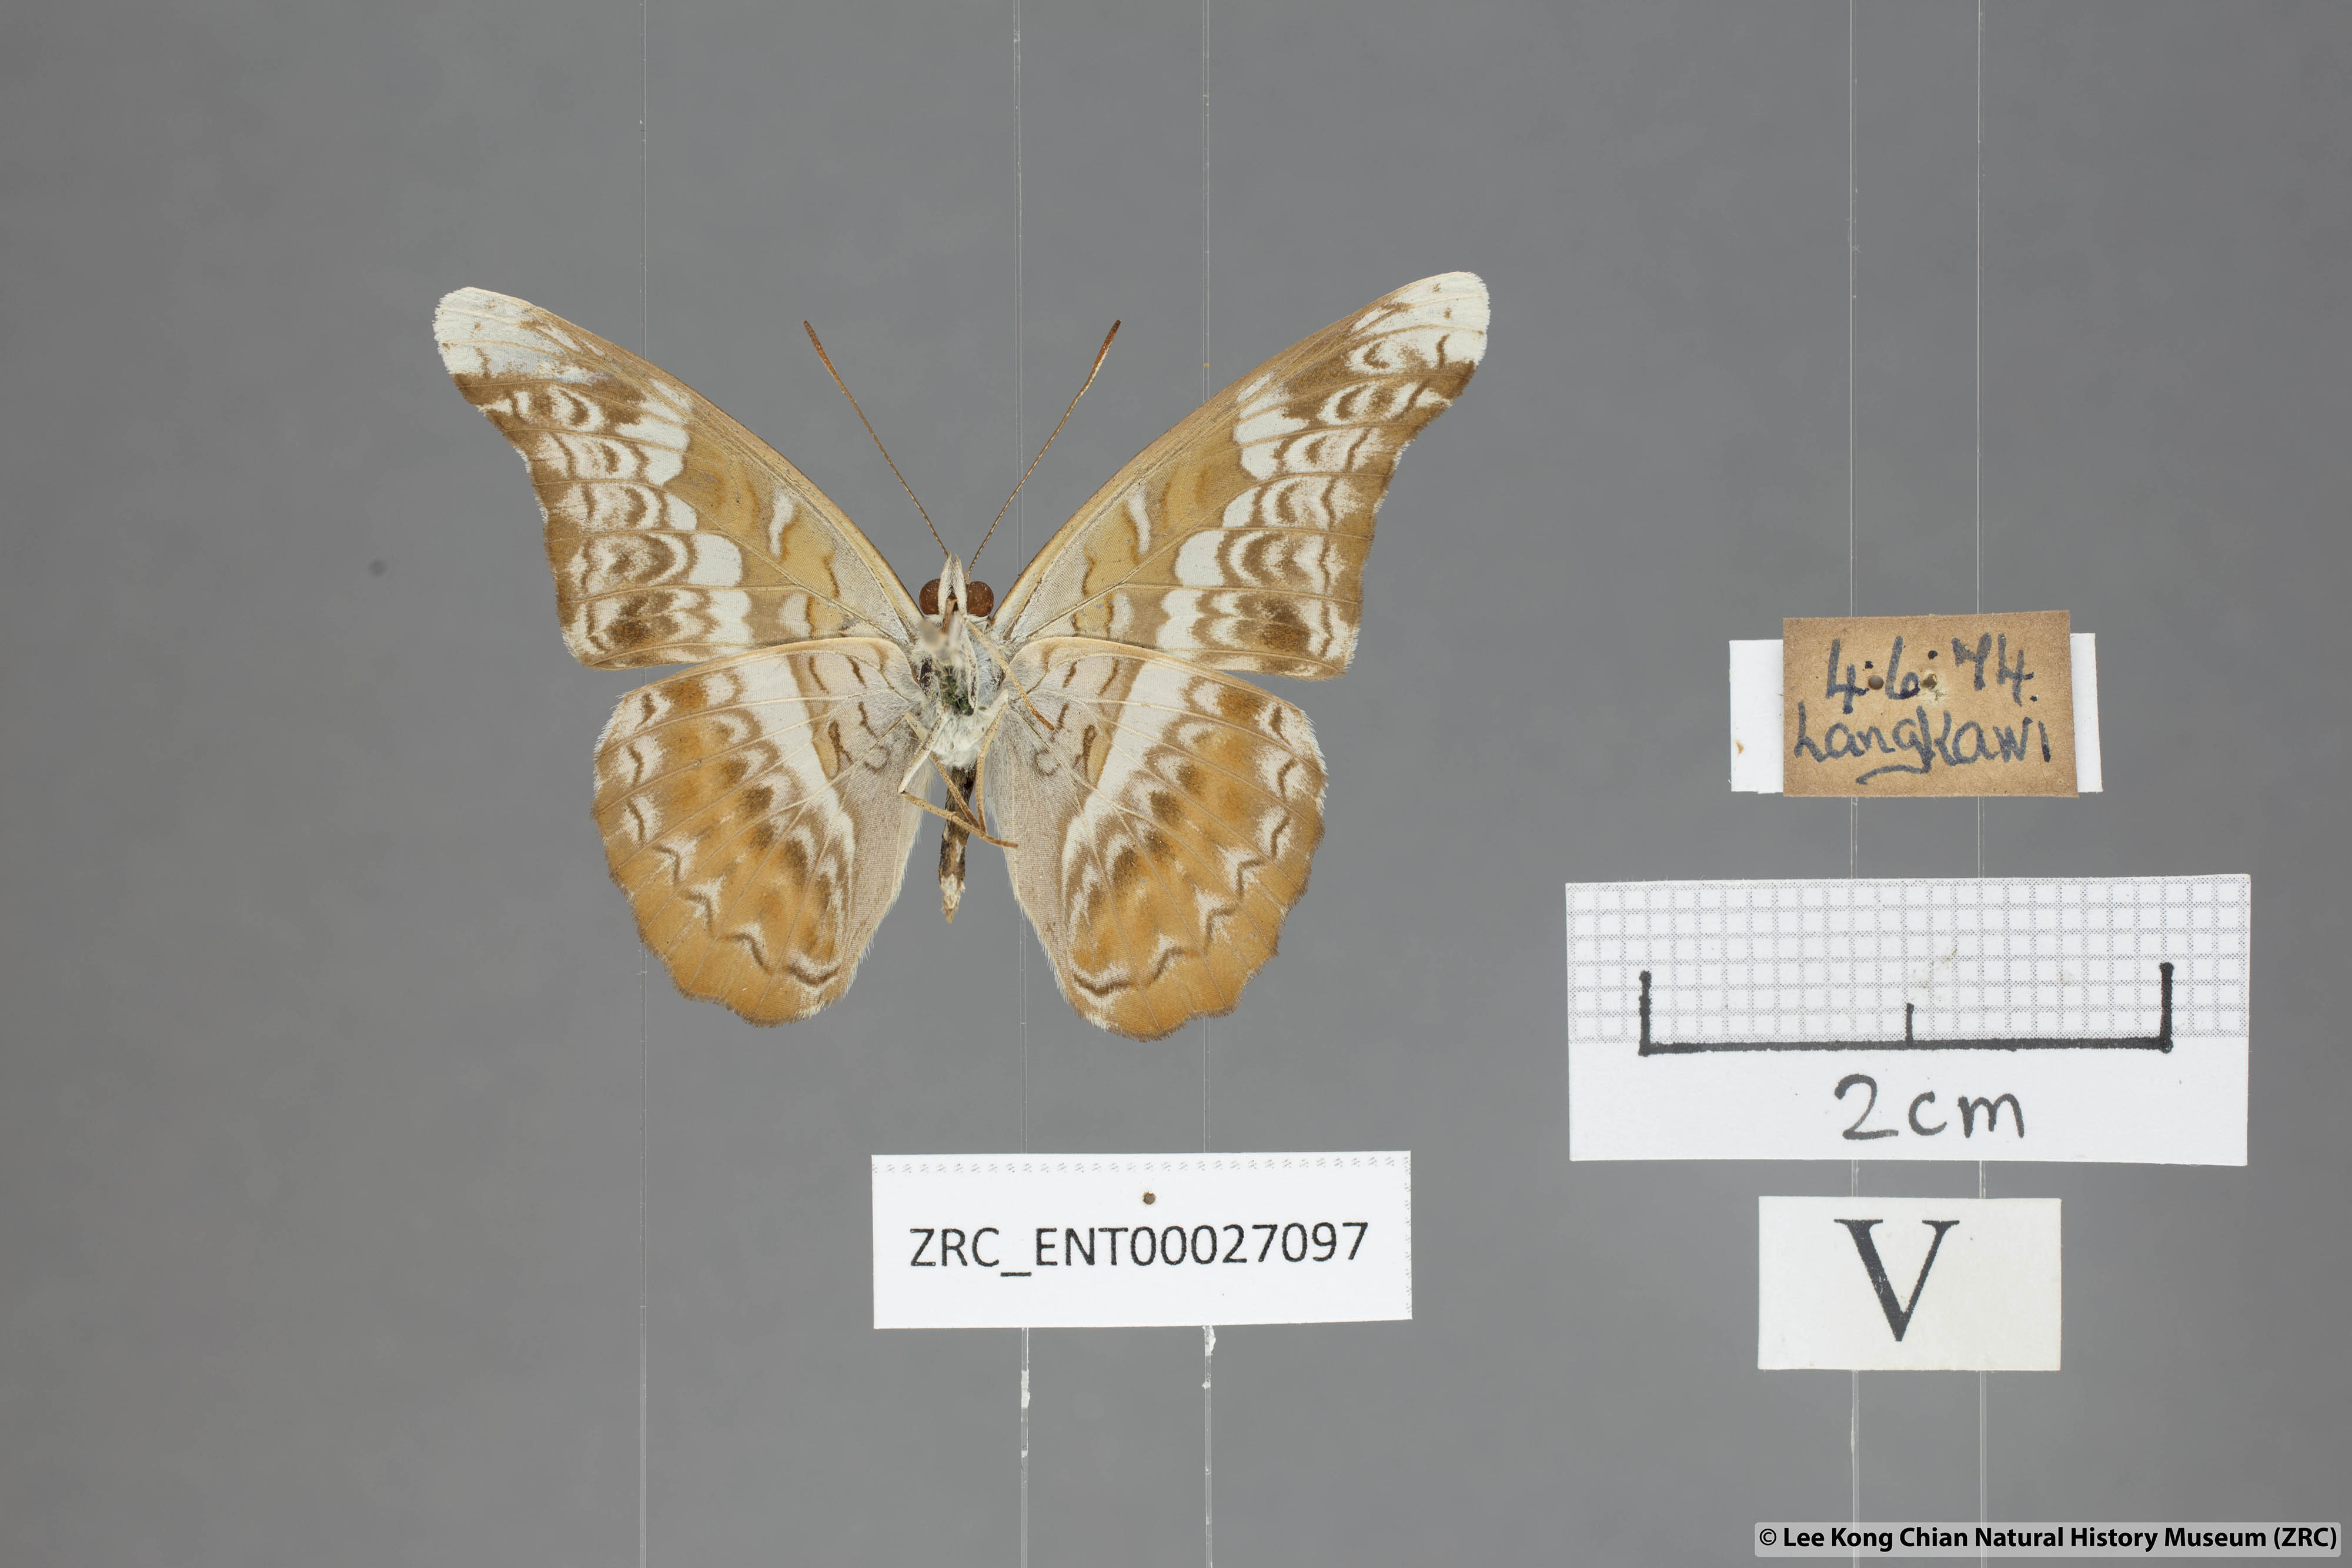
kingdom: Animalia
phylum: Arthropoda
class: Insecta
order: Lepidoptera
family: Nymphalidae
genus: Lebadea
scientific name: Lebadea martha
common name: Knight
